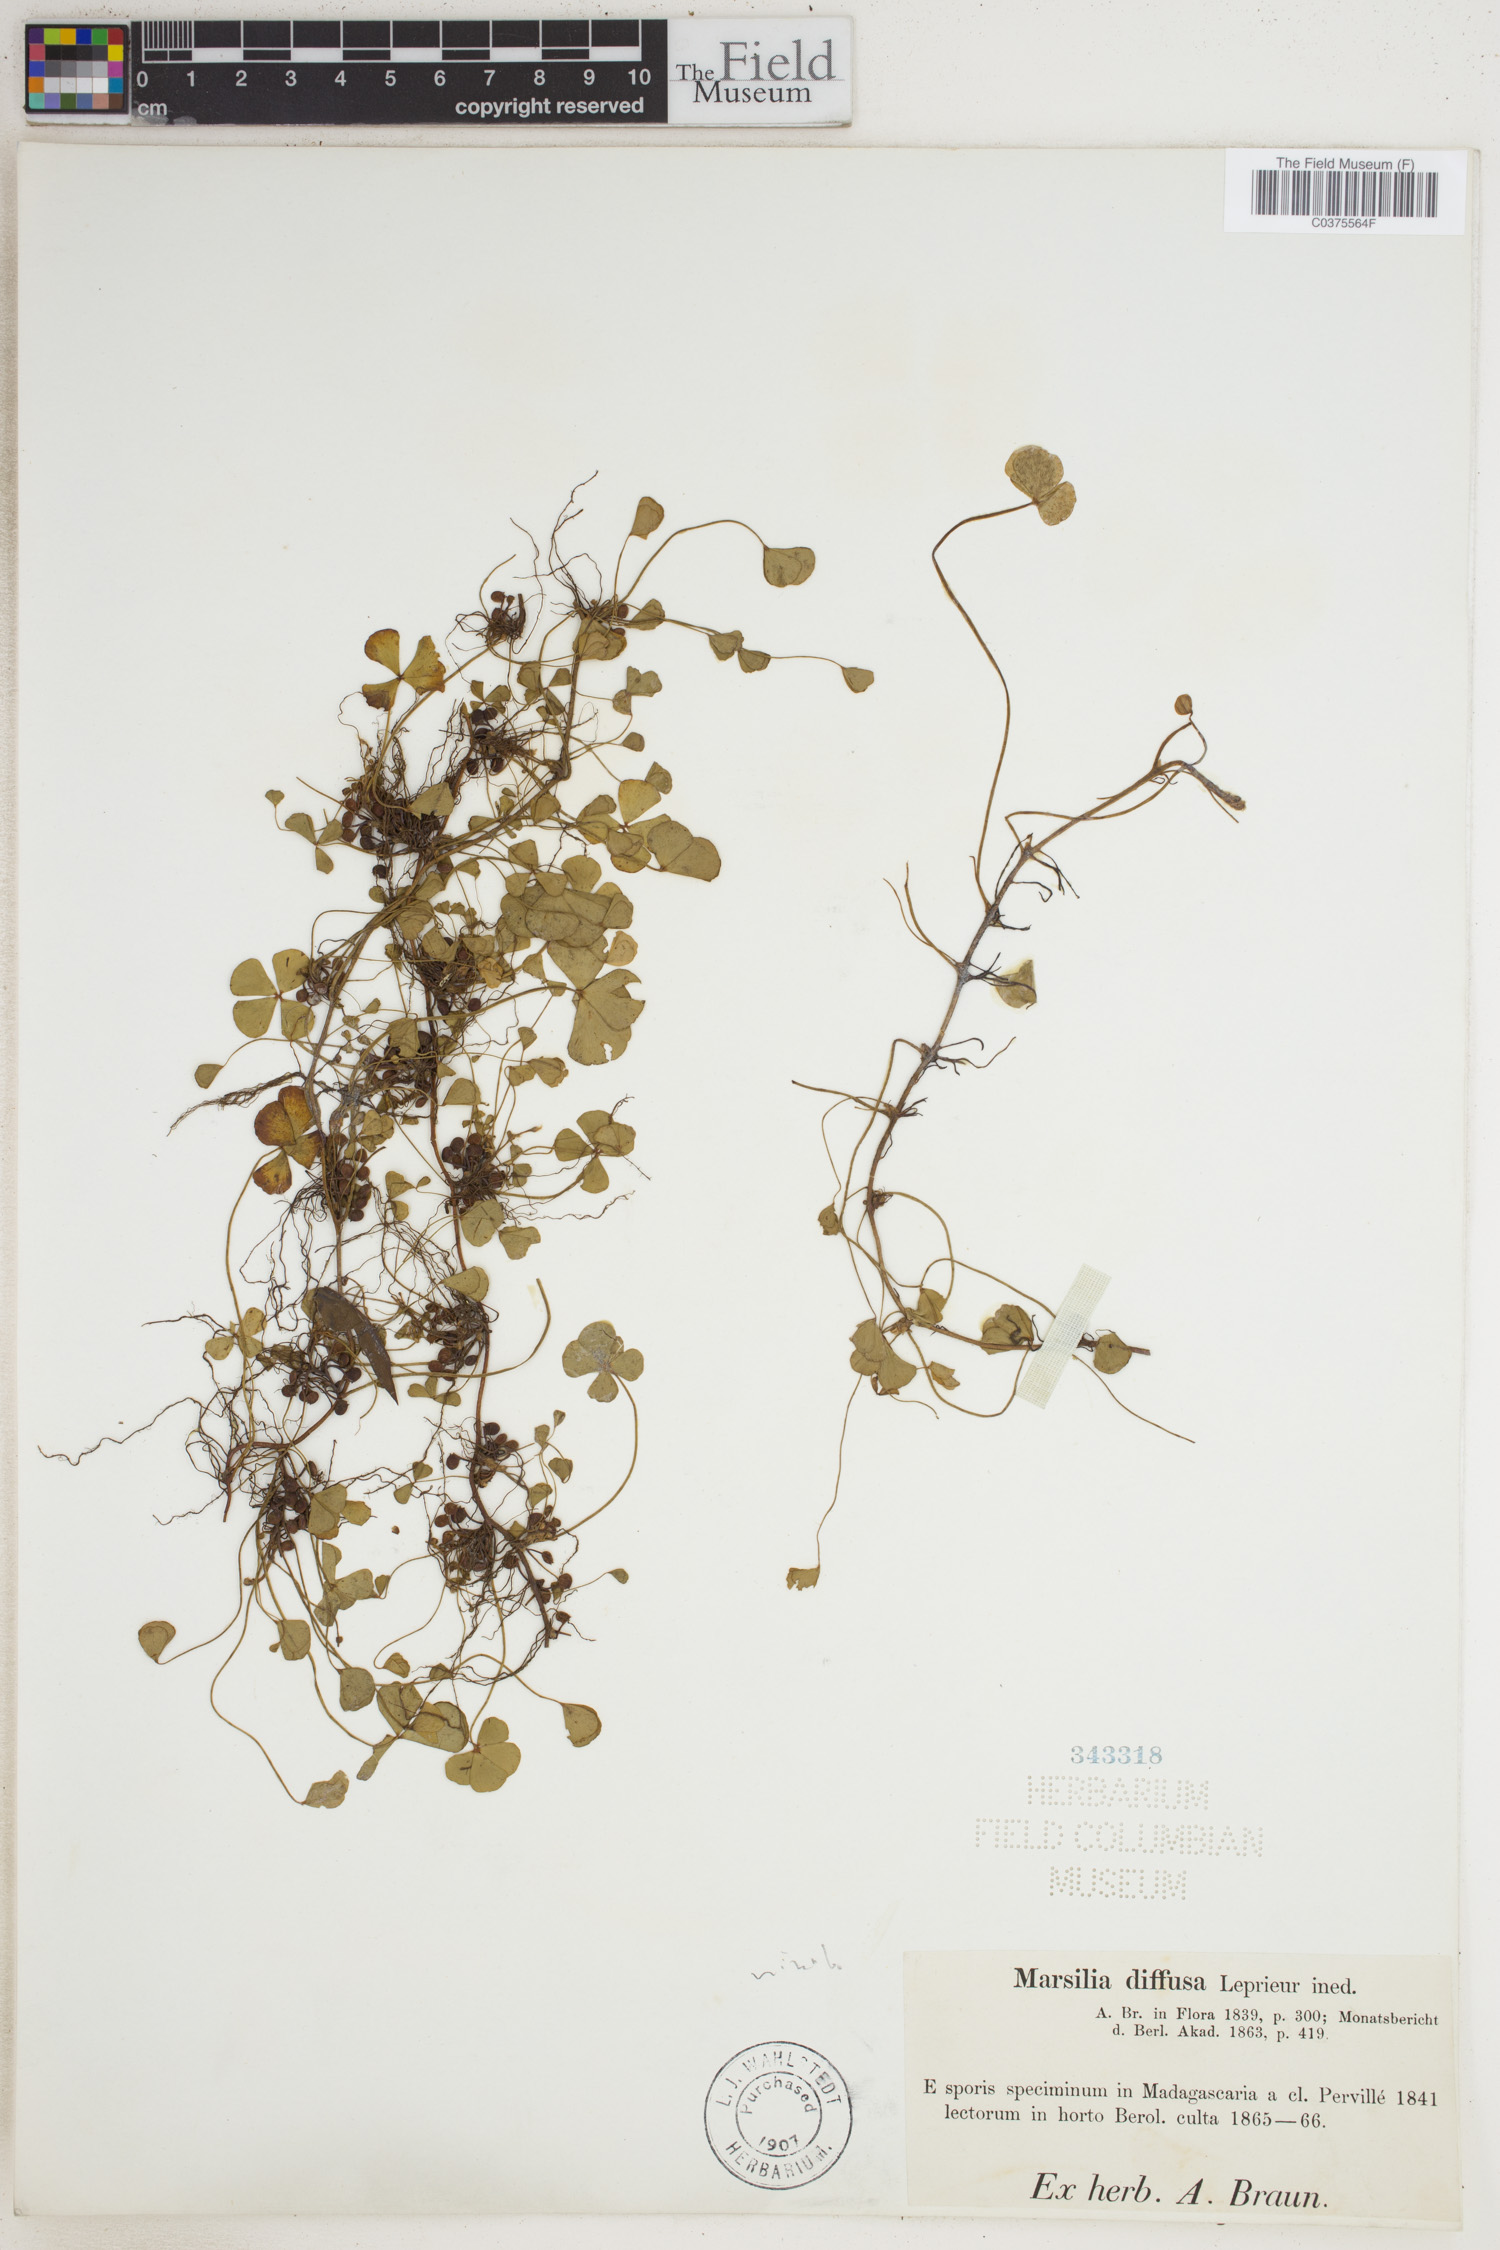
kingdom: Plantae
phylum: Tracheophyta
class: Polypodiopsida
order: Salviniales
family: Marsileaceae
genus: Marsilea
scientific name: Marsilea minuta
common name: Dwarf waterclover
